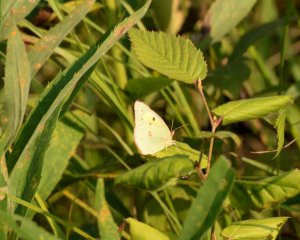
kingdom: Animalia
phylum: Arthropoda
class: Insecta
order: Lepidoptera
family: Pieridae
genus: Colias
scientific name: Colias philodice
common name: Clouded Sulphur
